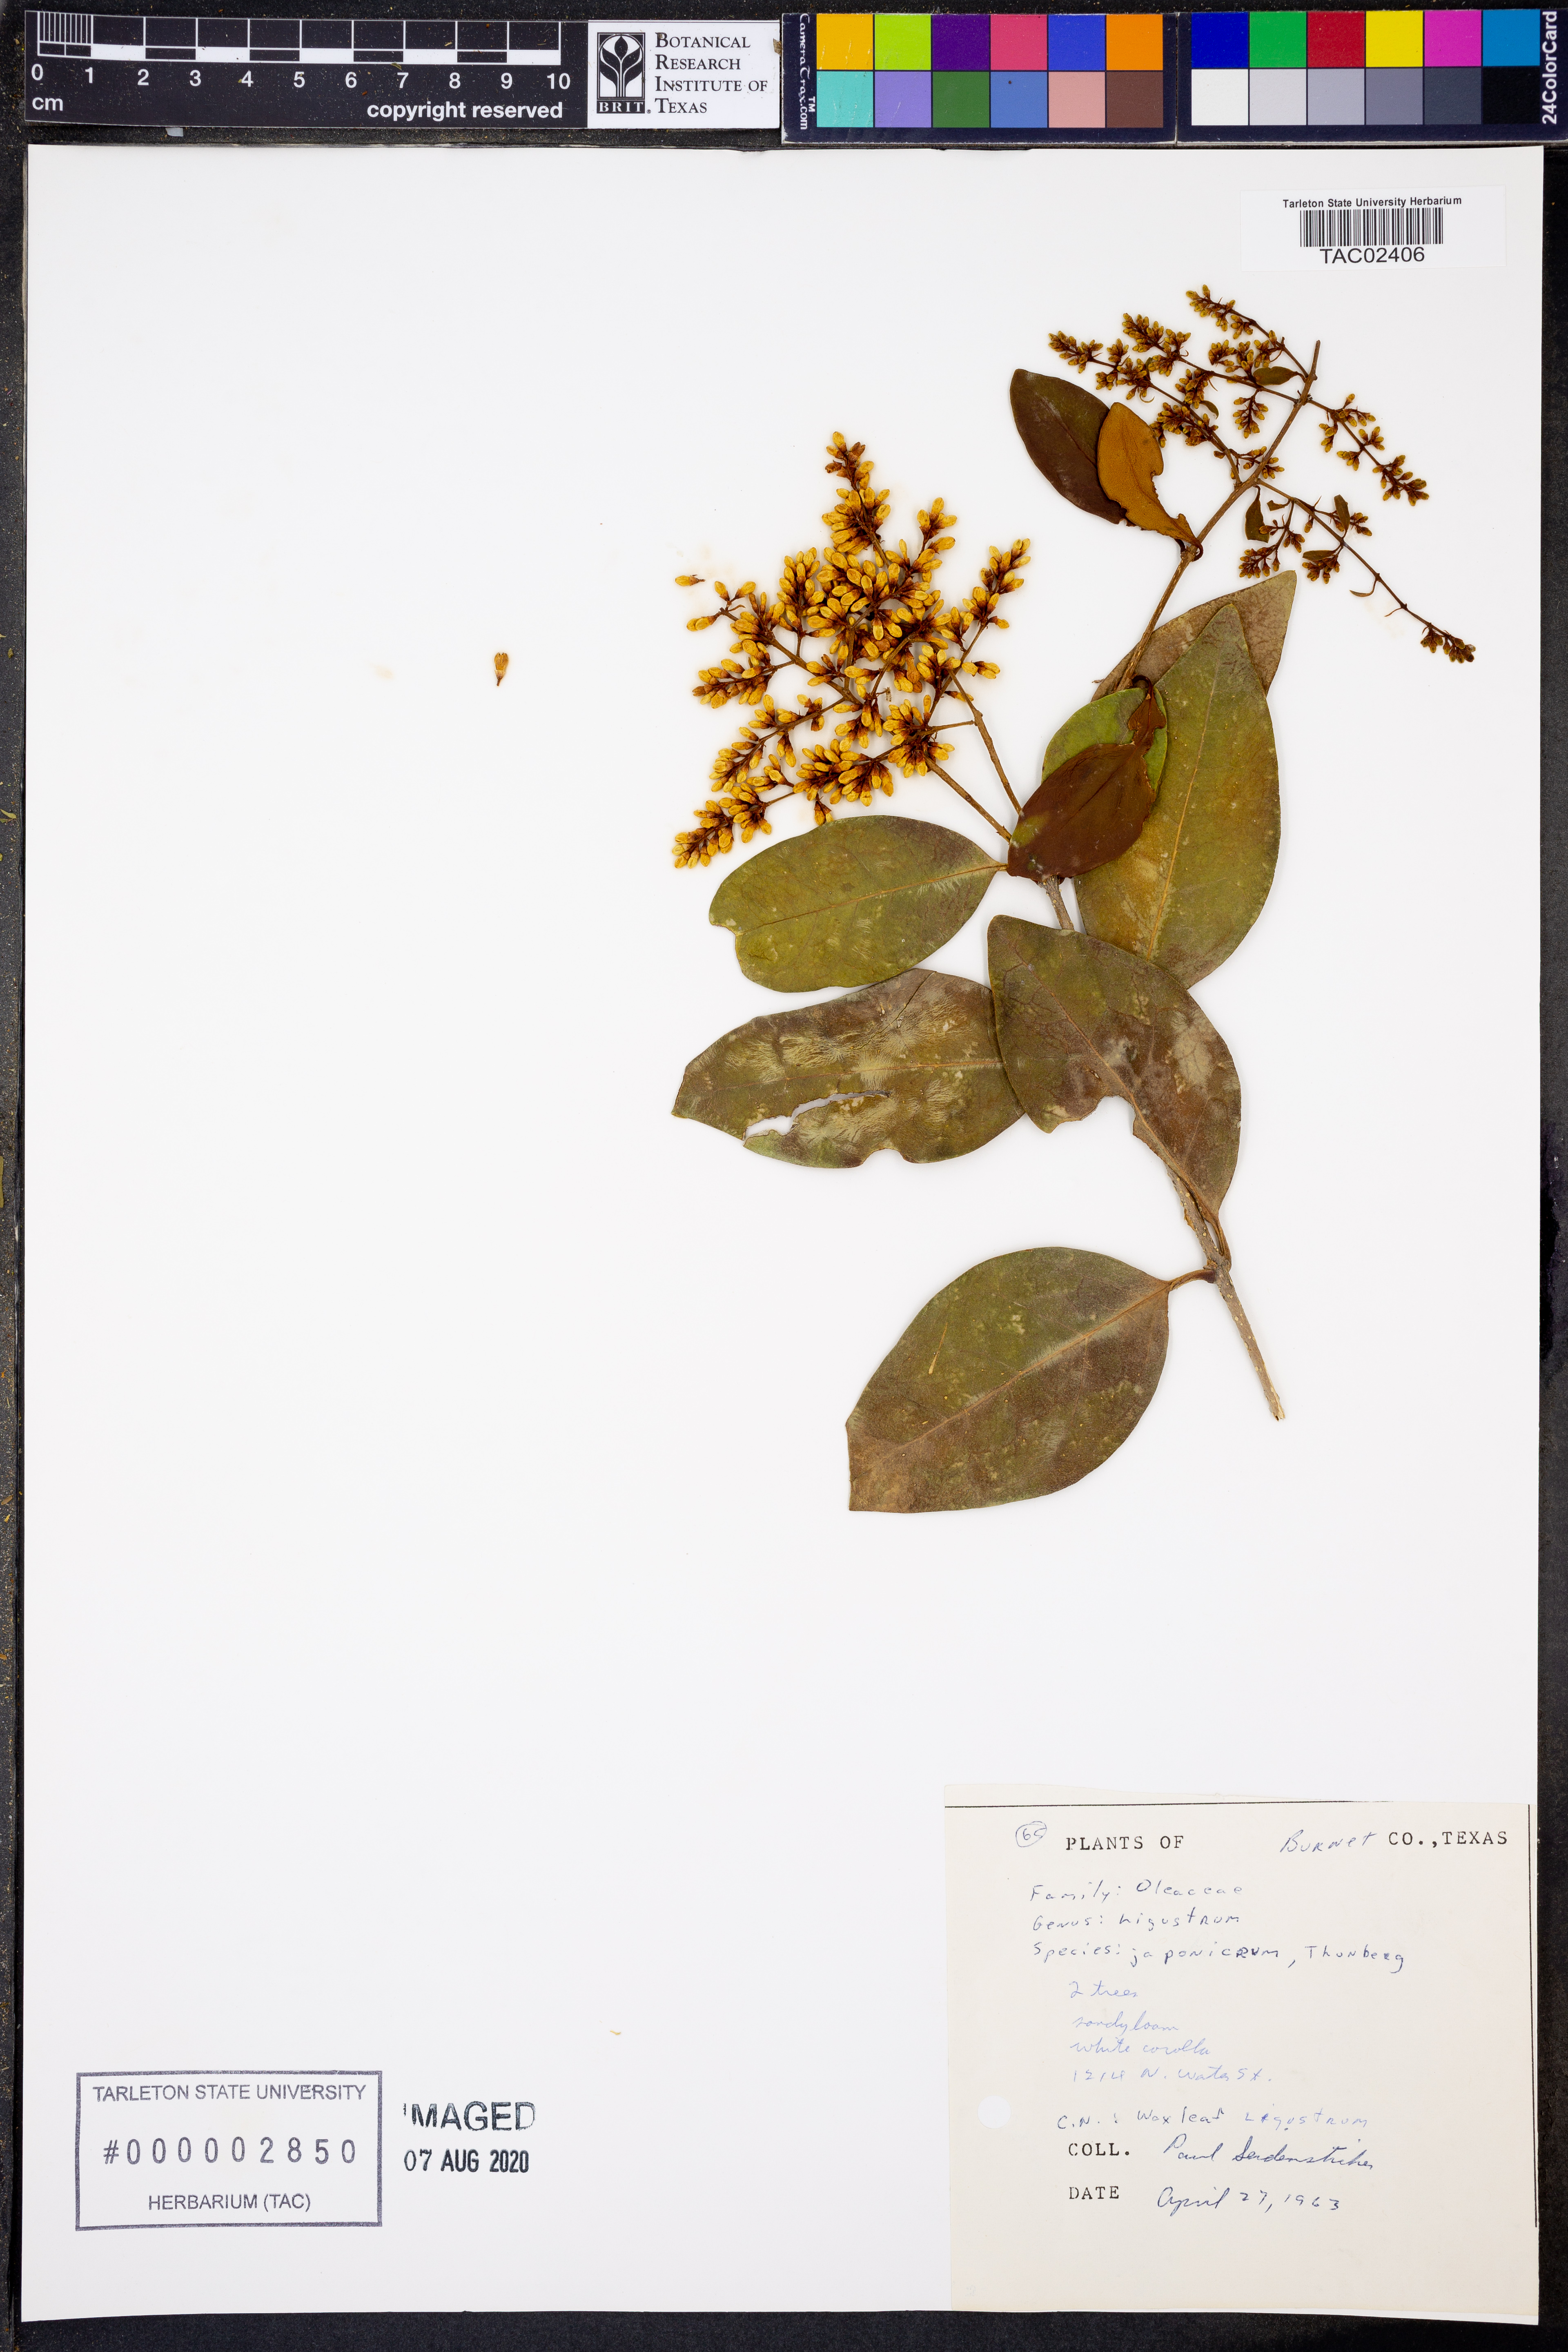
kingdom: Plantae
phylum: Tracheophyta
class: Magnoliopsida
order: Lamiales
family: Oleaceae
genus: Ligustrum
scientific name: Ligustrum japonicum
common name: Japanese privet
